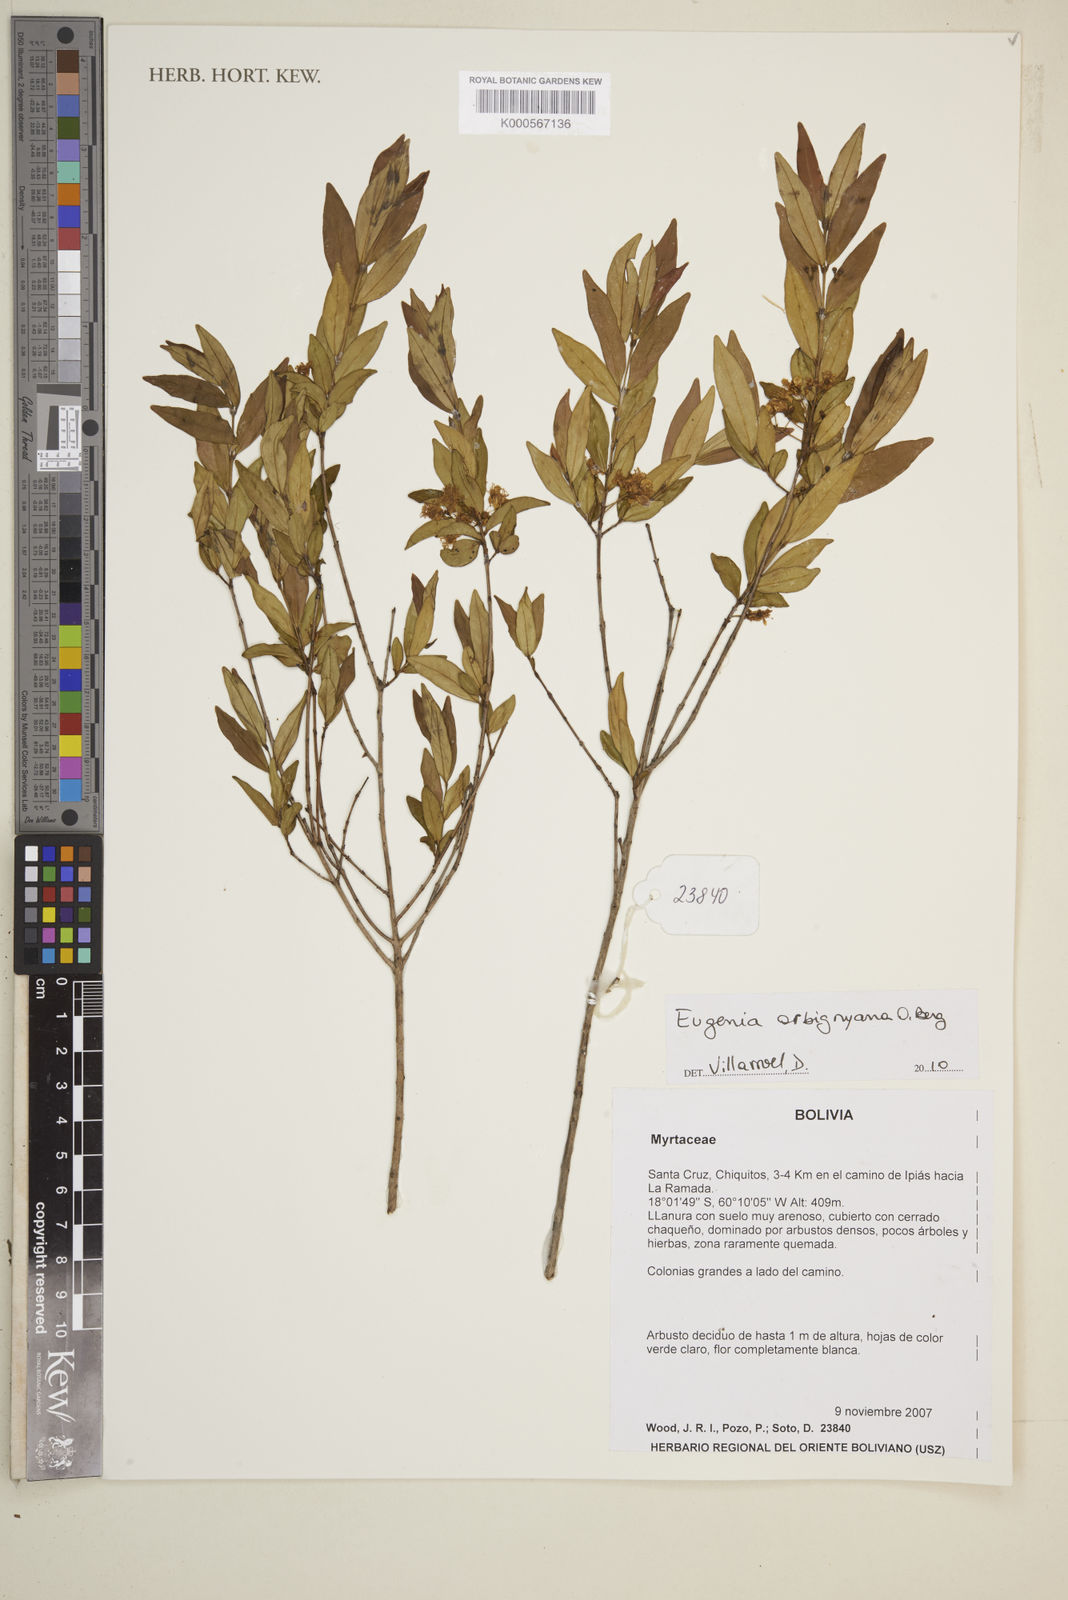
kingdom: Plantae
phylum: Tracheophyta
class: Magnoliopsida
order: Myrtales
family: Myrtaceae
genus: Eugenia
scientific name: Eugenia orbignyana
